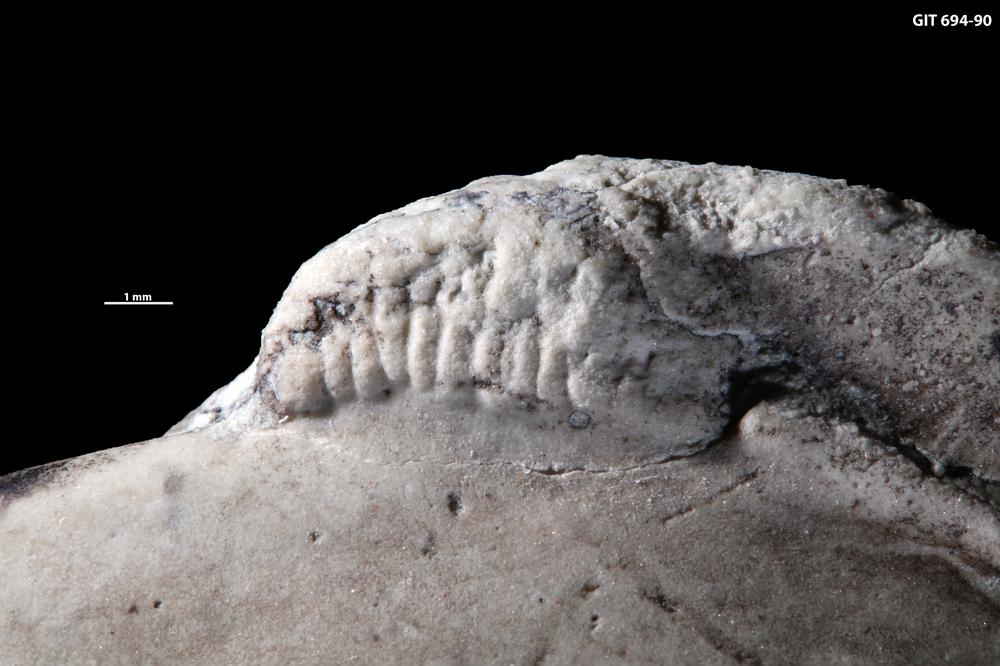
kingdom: Animalia
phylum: Mollusca
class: Bivalvia
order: Modiomorphida
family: Modiomorphidae
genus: Aristerella
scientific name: Aristerella
